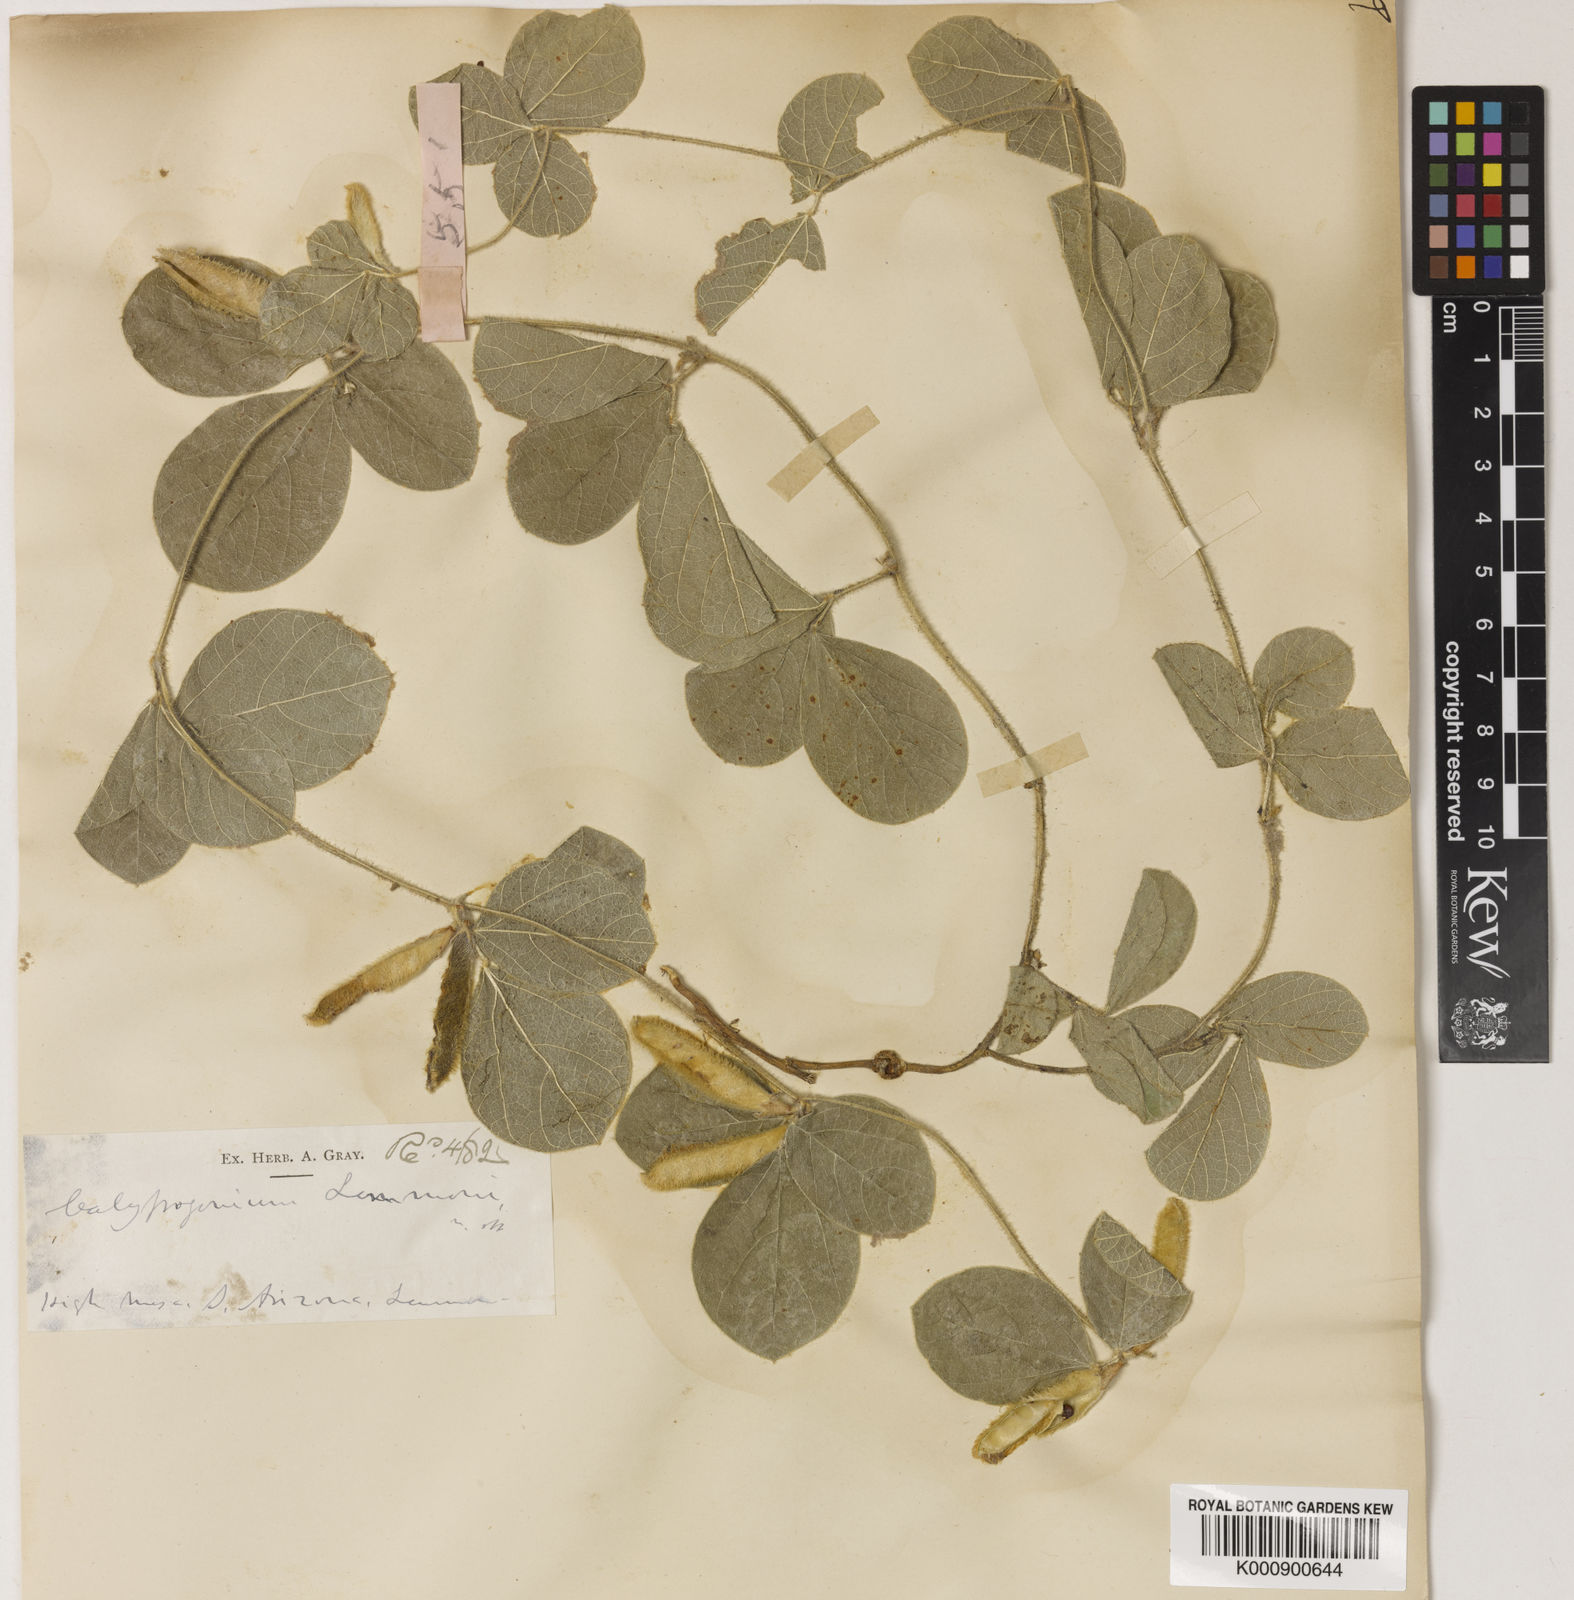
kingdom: Plantae
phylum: Tracheophyta
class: Magnoliopsida
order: Fabales
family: Fabaceae
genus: Cologania
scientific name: Cologania obovata
